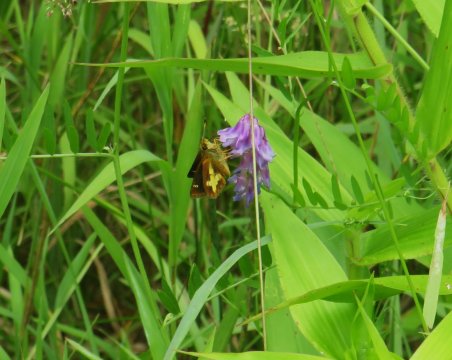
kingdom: Animalia
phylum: Arthropoda
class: Insecta
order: Lepidoptera
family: Hesperiidae
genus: Poanes
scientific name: Poanes massasoit
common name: Mulberry Wing
